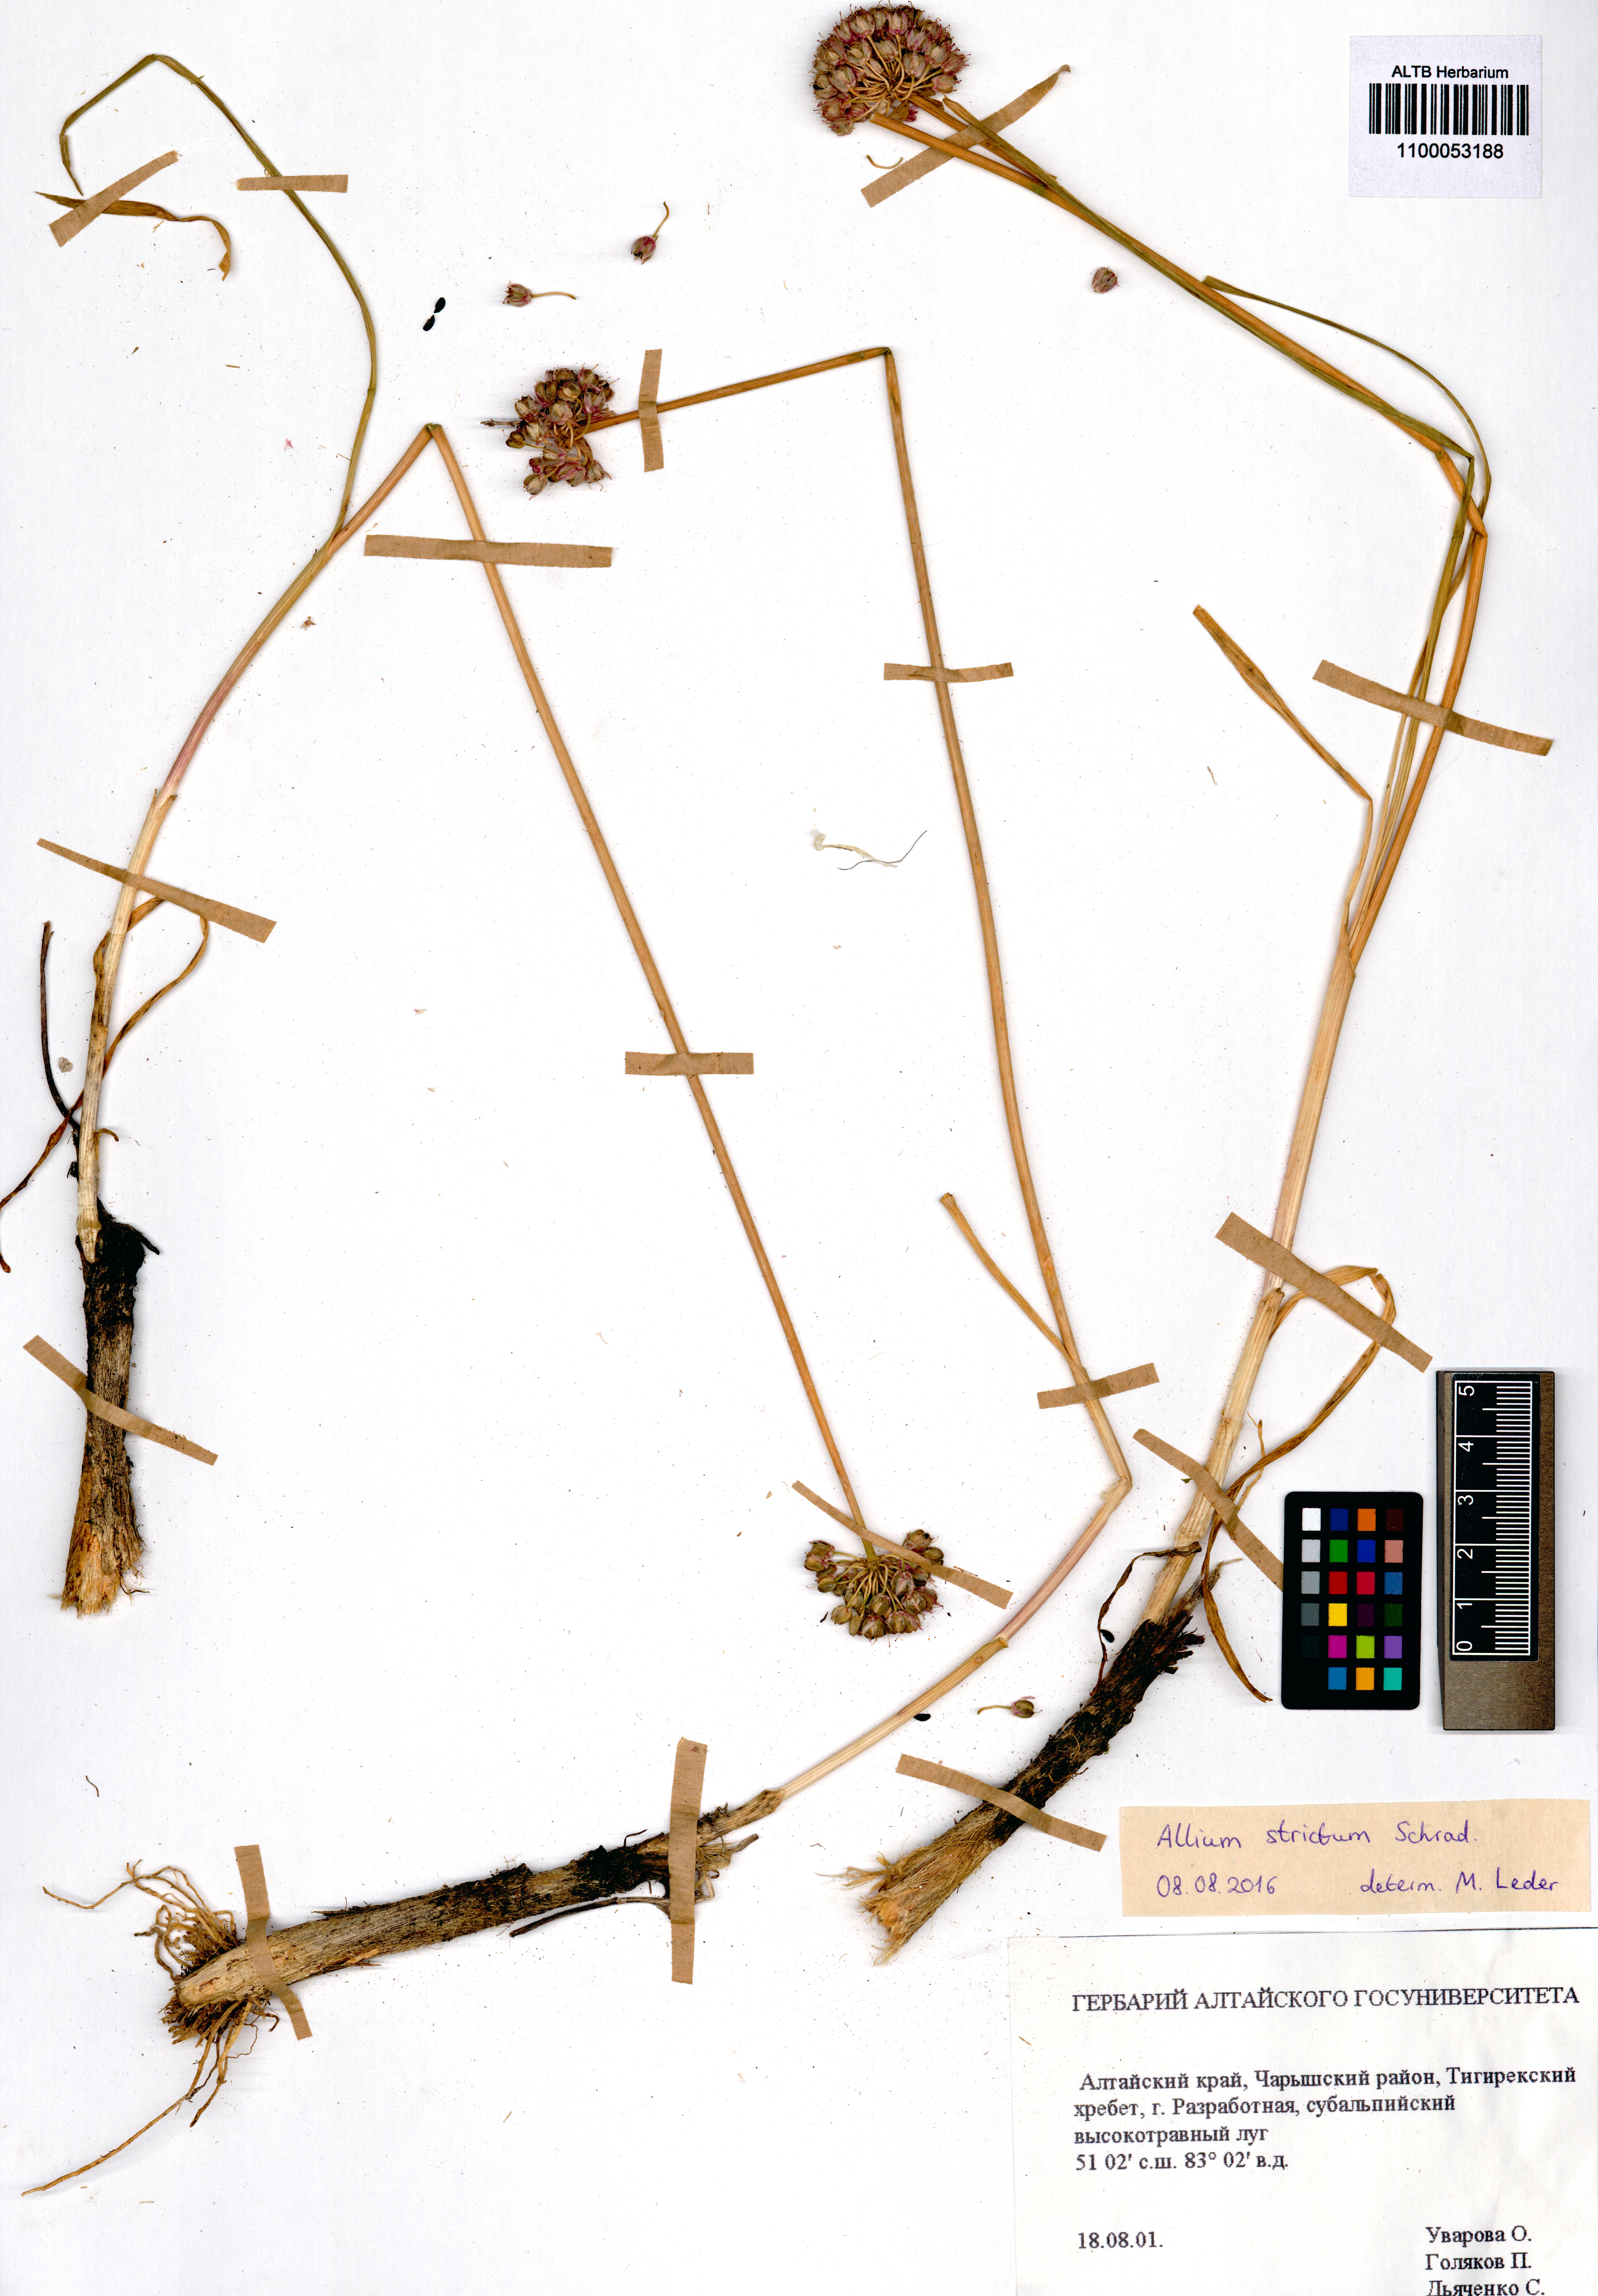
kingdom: Plantae
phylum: Tracheophyta
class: Liliopsida
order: Asparagales
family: Amaryllidaceae
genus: Allium
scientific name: Allium strictum
